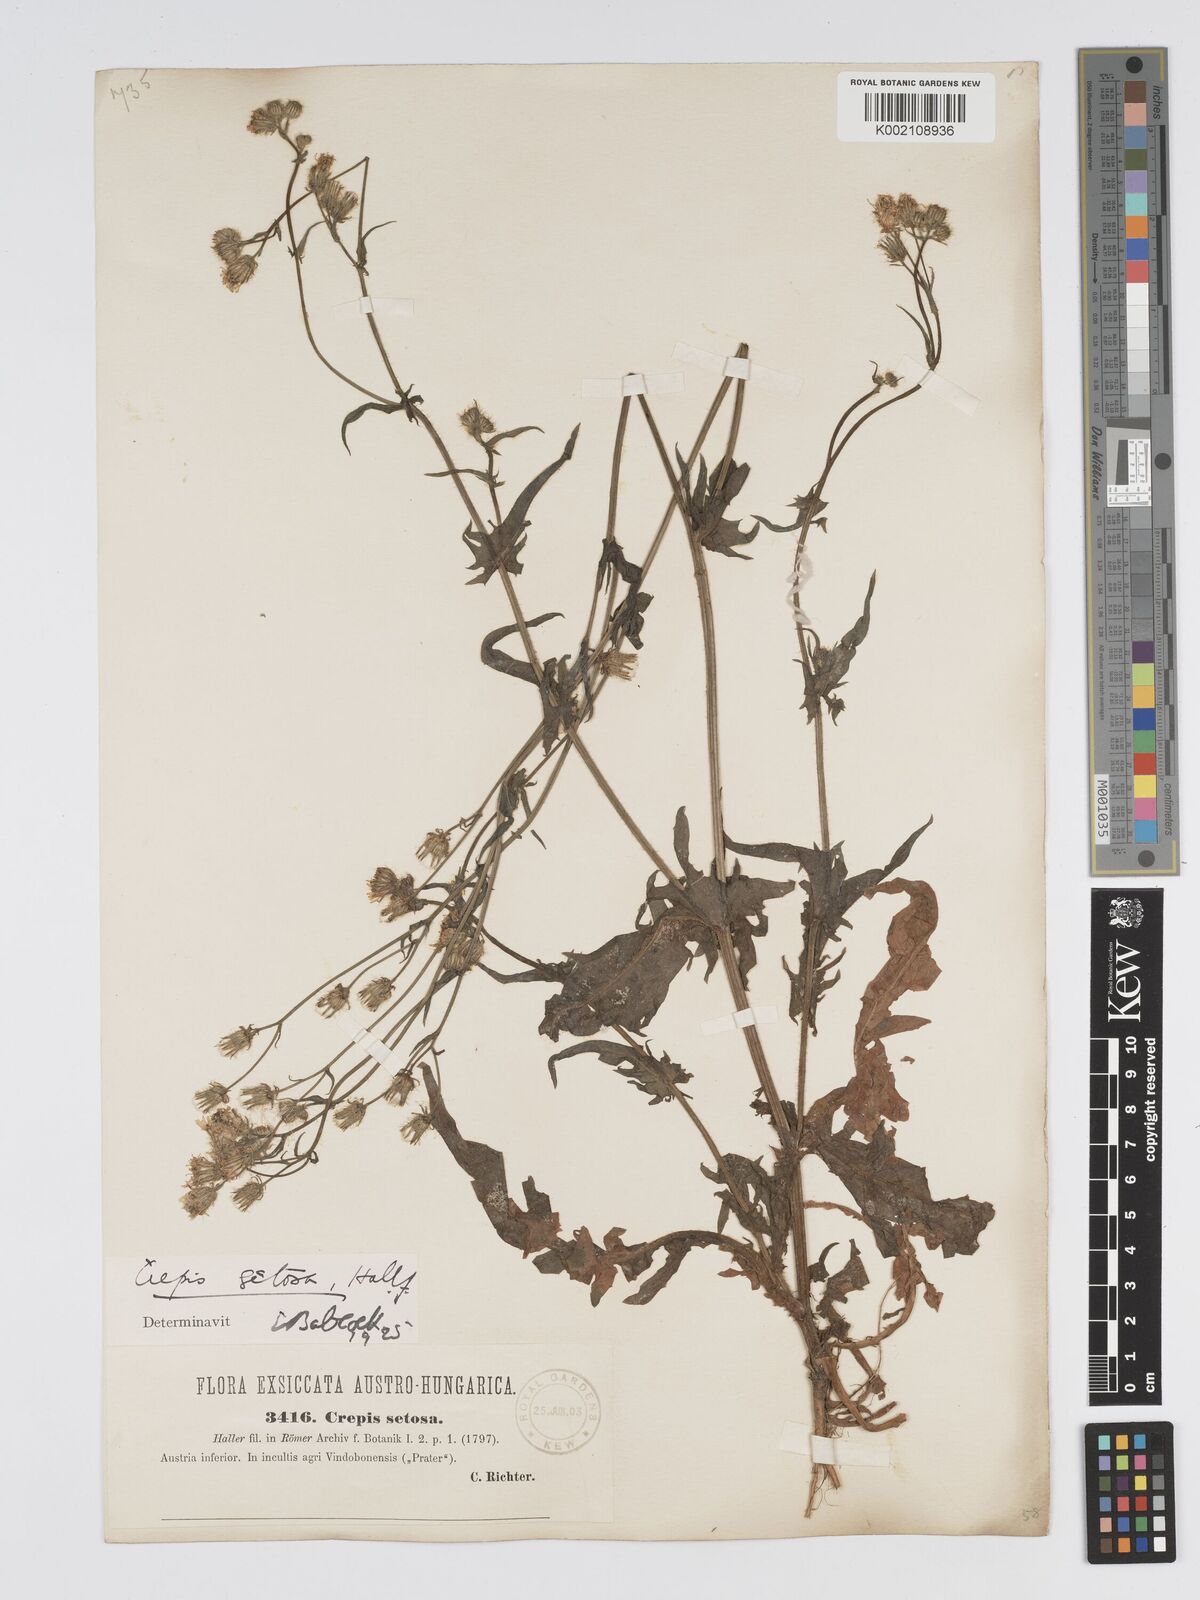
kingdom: Plantae
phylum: Tracheophyta
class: Magnoliopsida
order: Asterales
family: Asteraceae
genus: Crepis
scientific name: Crepis setosa
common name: Bristly hawk's-beard
